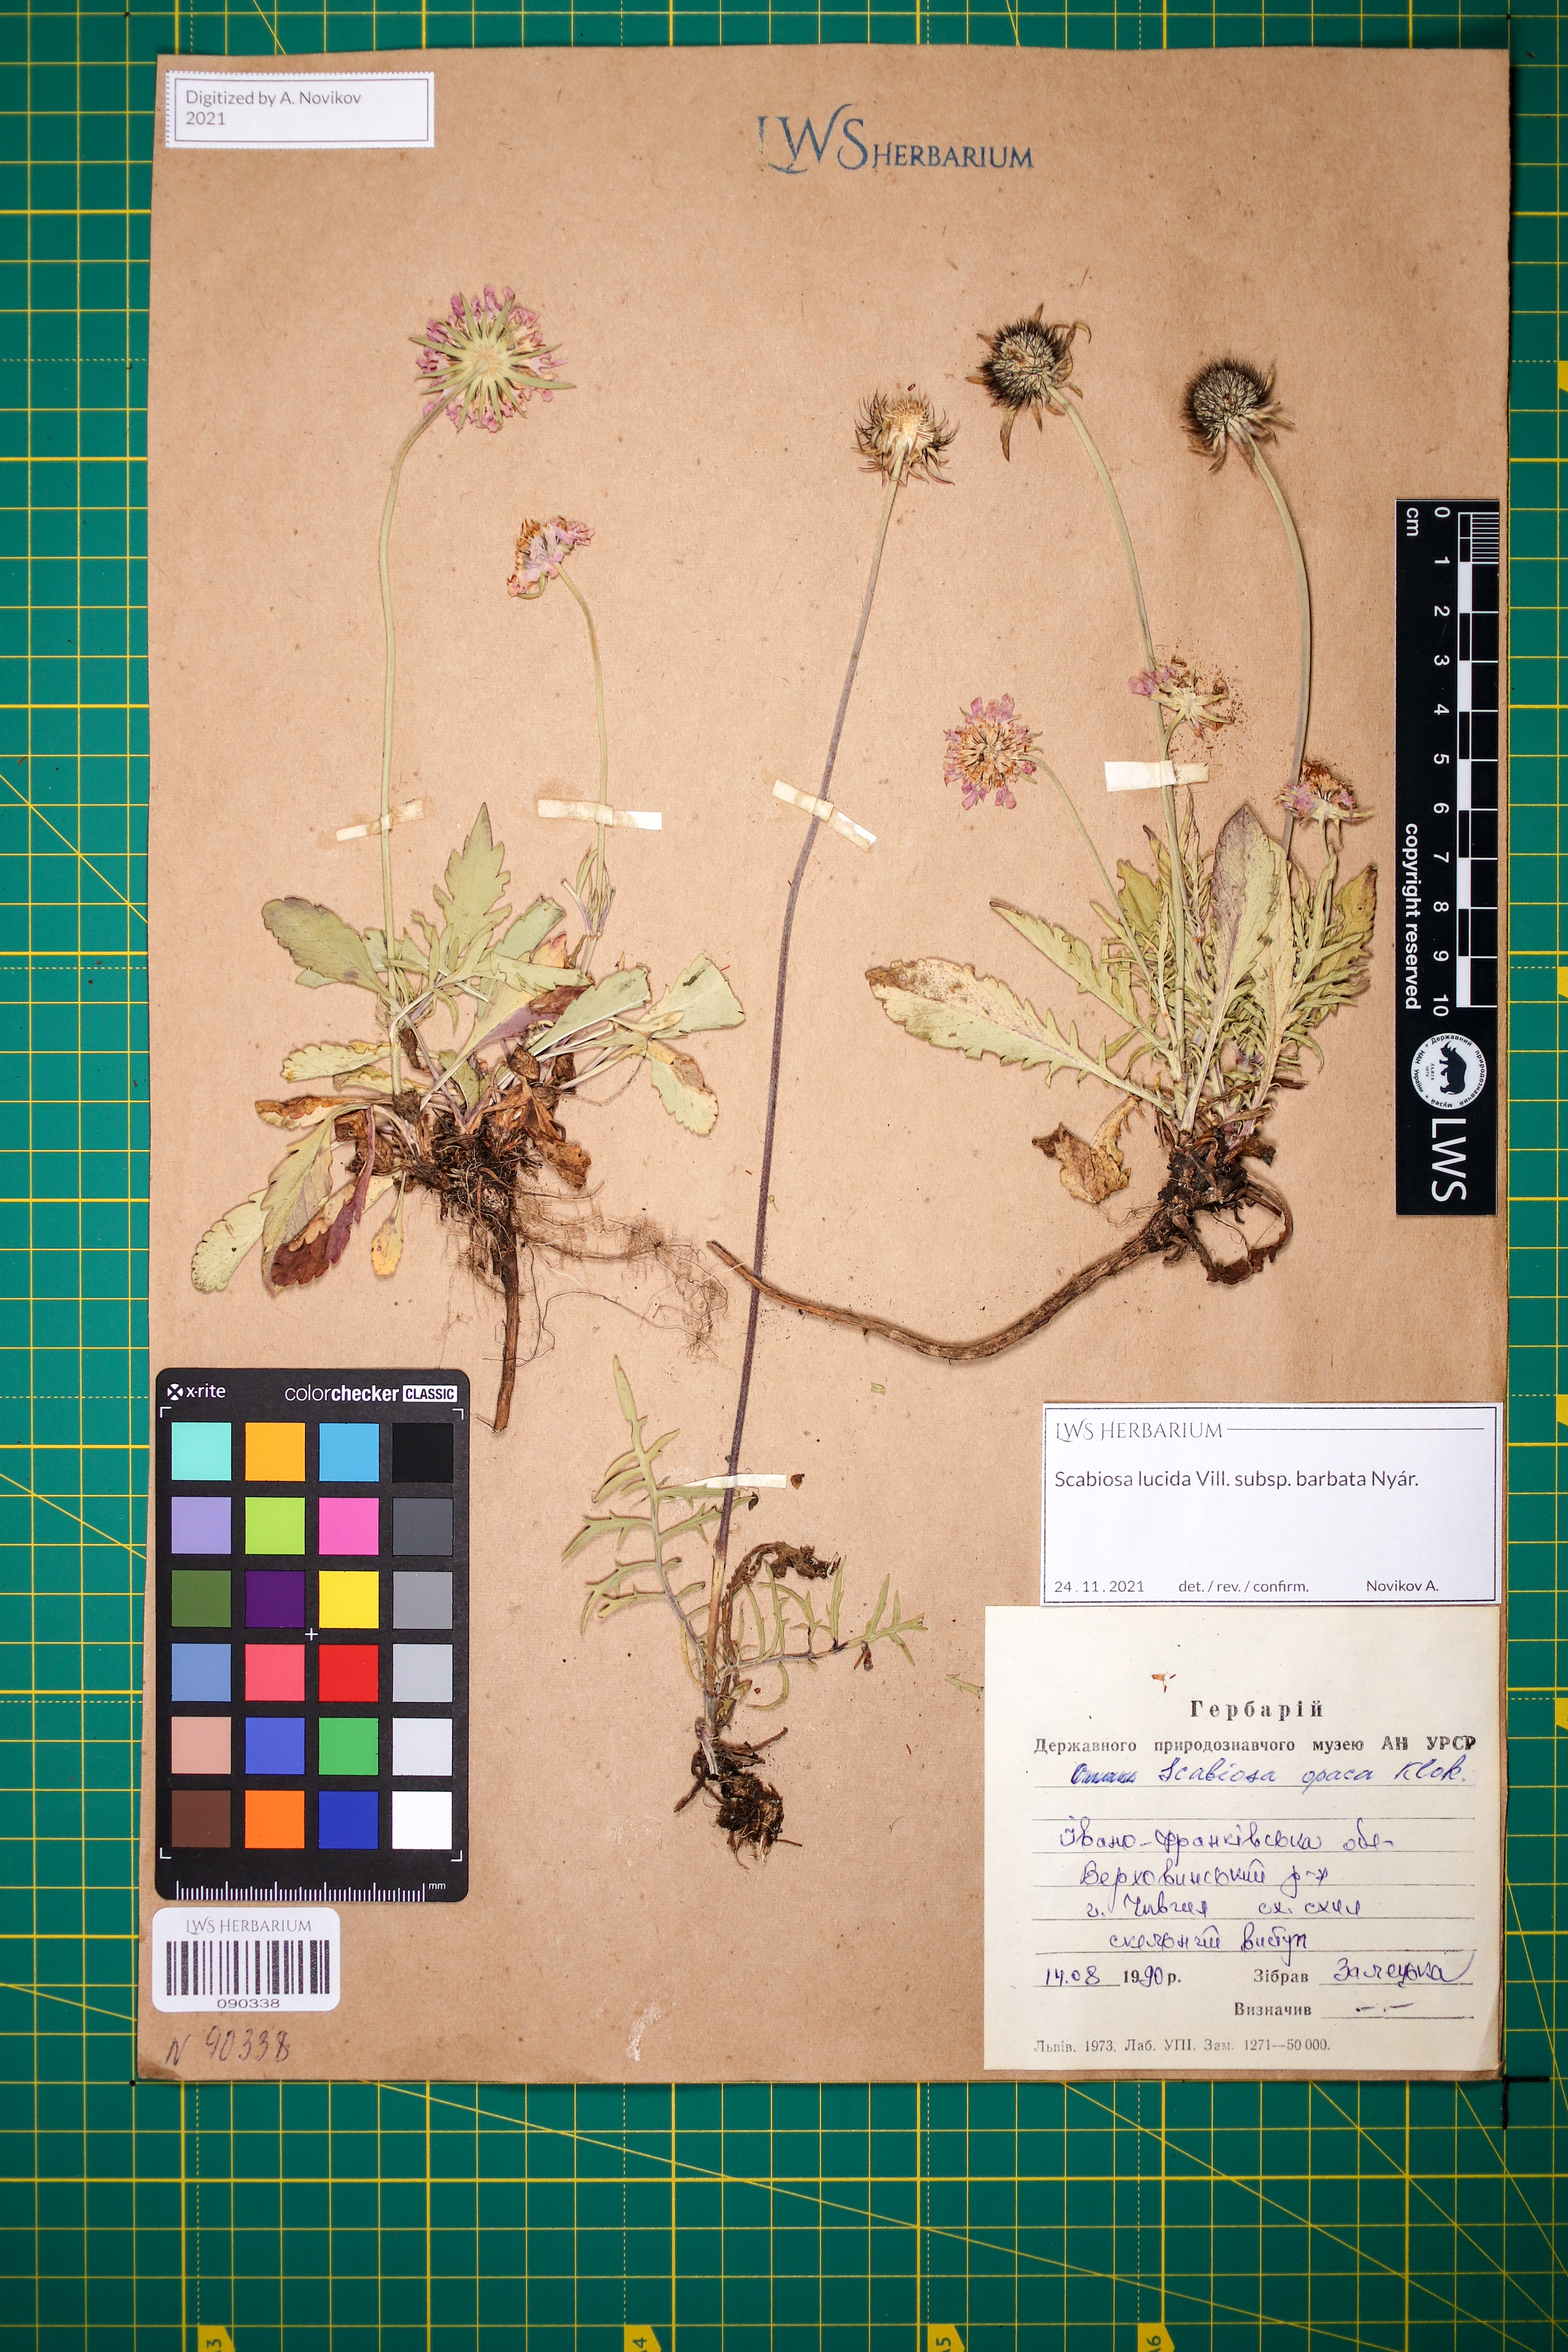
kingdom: Plantae
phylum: Tracheophyta
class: Magnoliopsida
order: Dipsacales
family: Caprifoliaceae
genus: Scabiosa
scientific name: Scabiosa lucida
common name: Shining scabious
